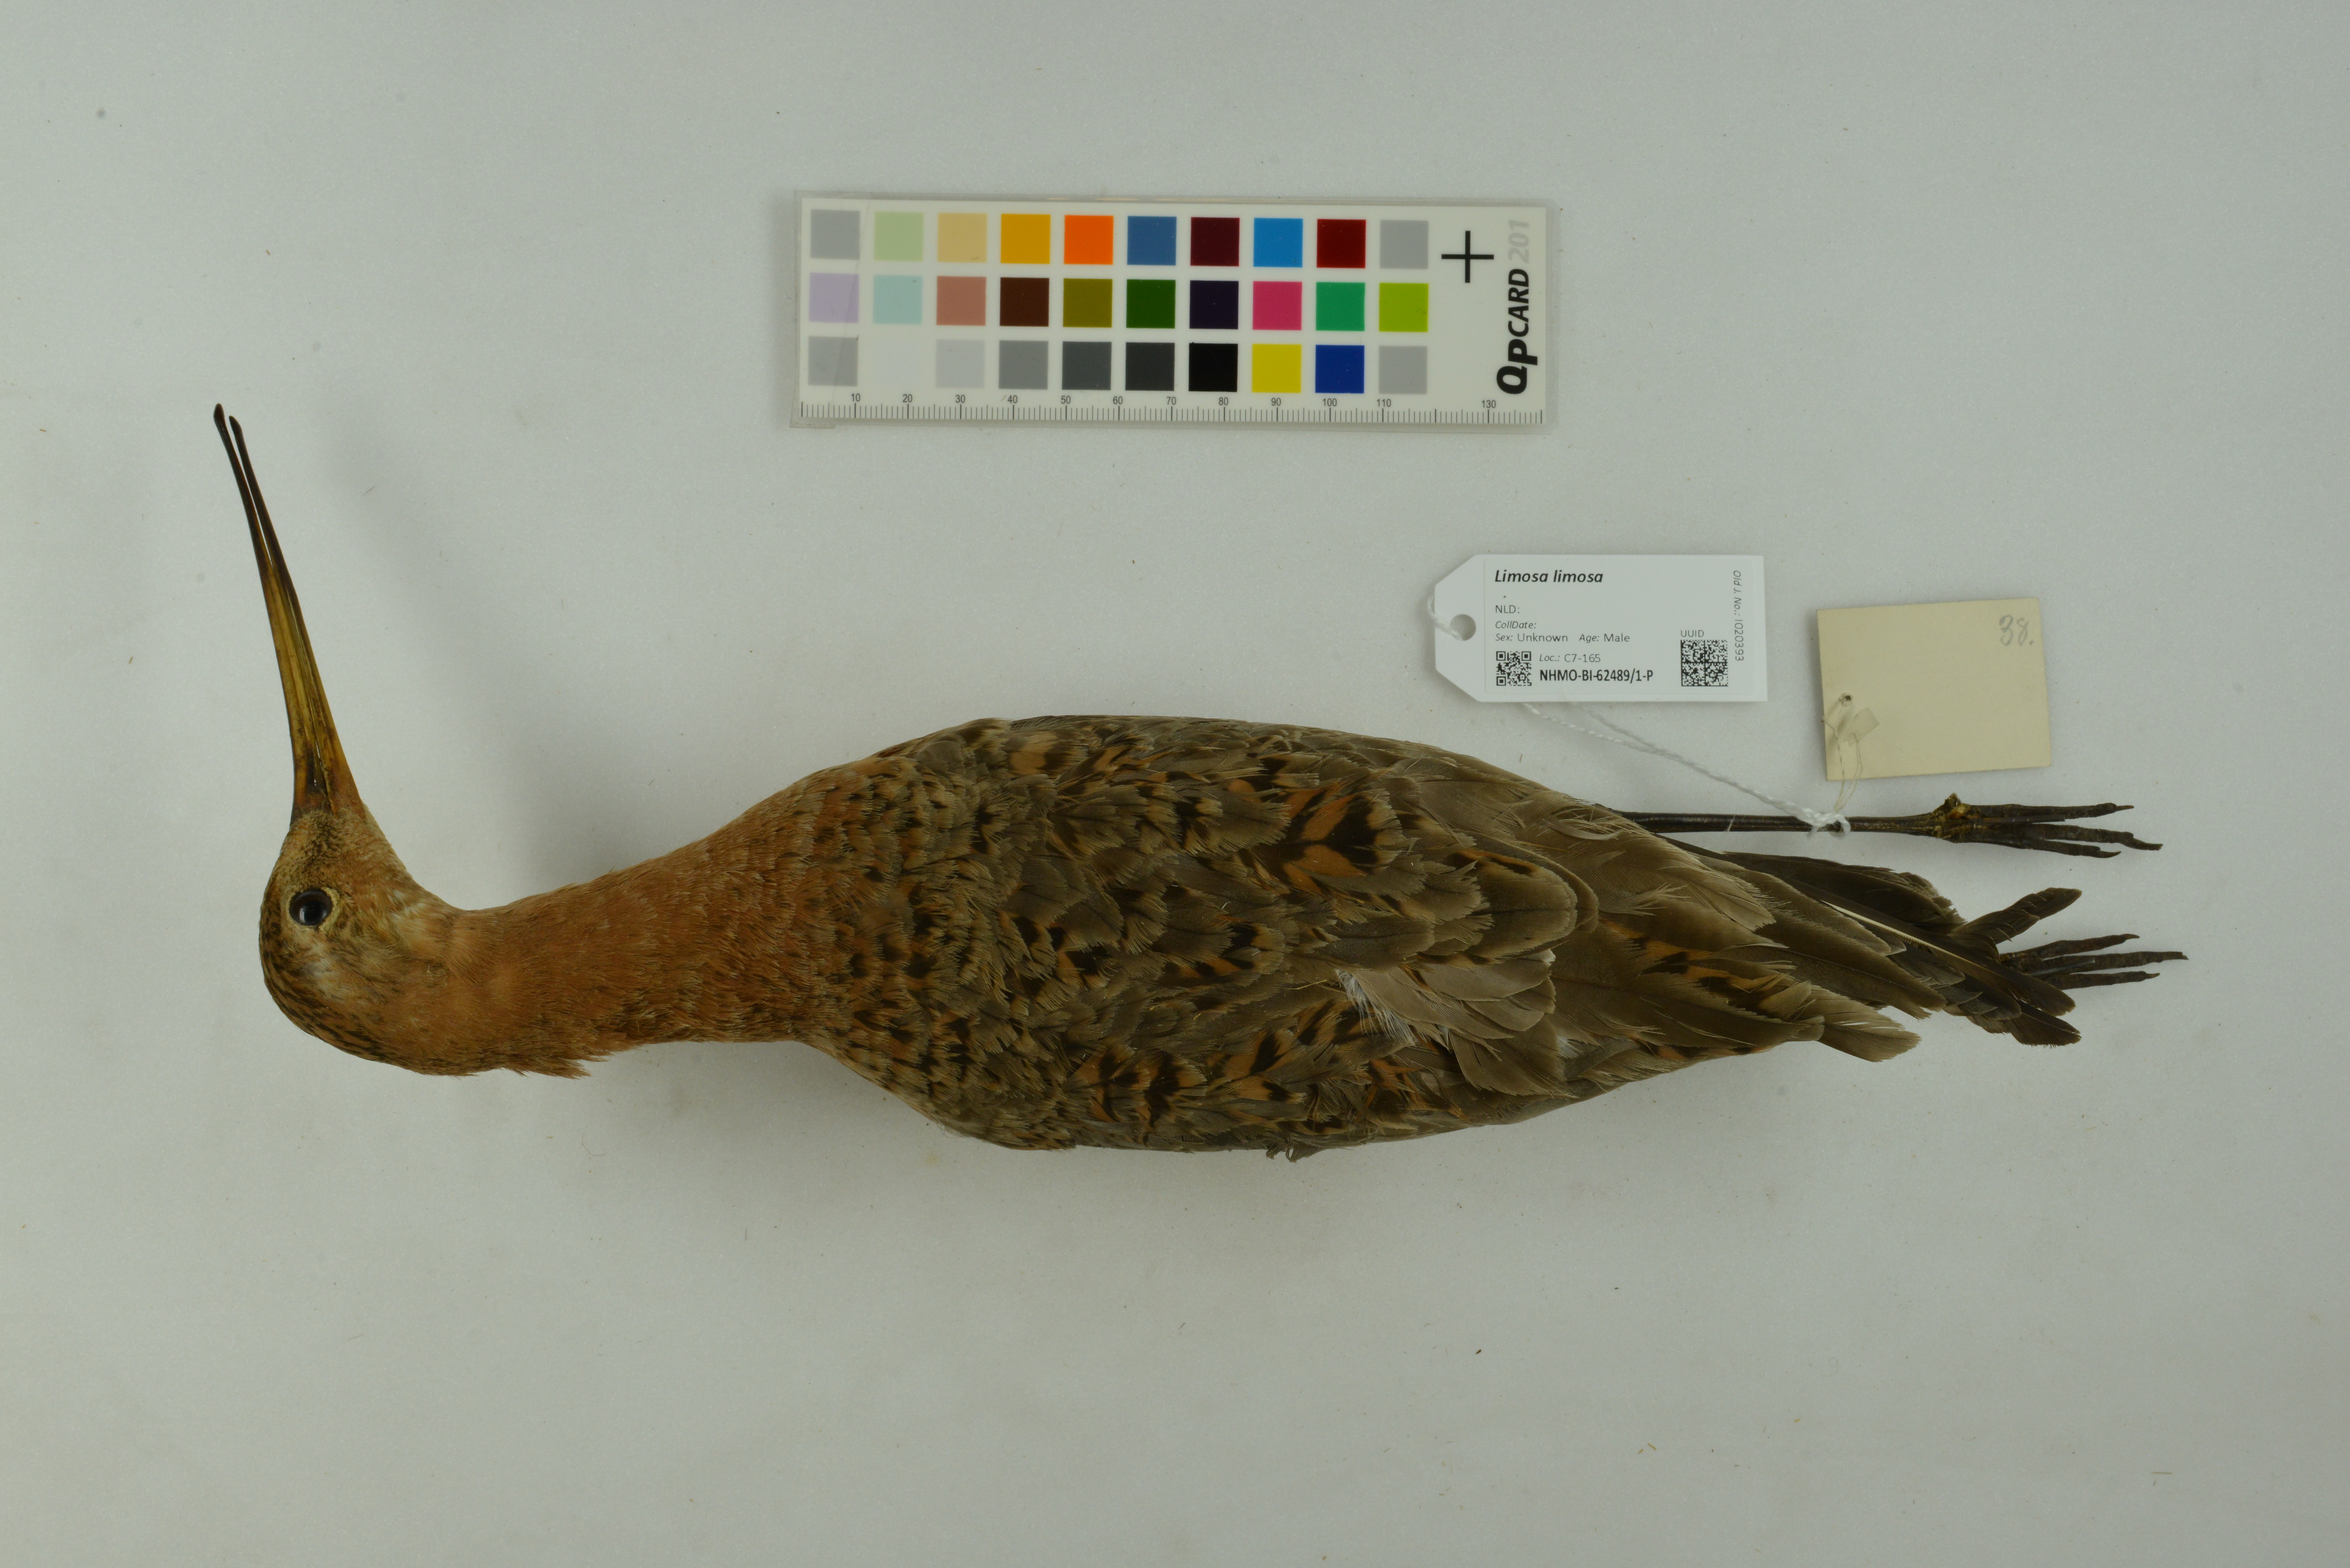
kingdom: Animalia
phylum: Chordata
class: Aves
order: Charadriiformes
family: Scolopacidae
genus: Limosa
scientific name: Limosa limosa
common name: Black-tailed godwit
